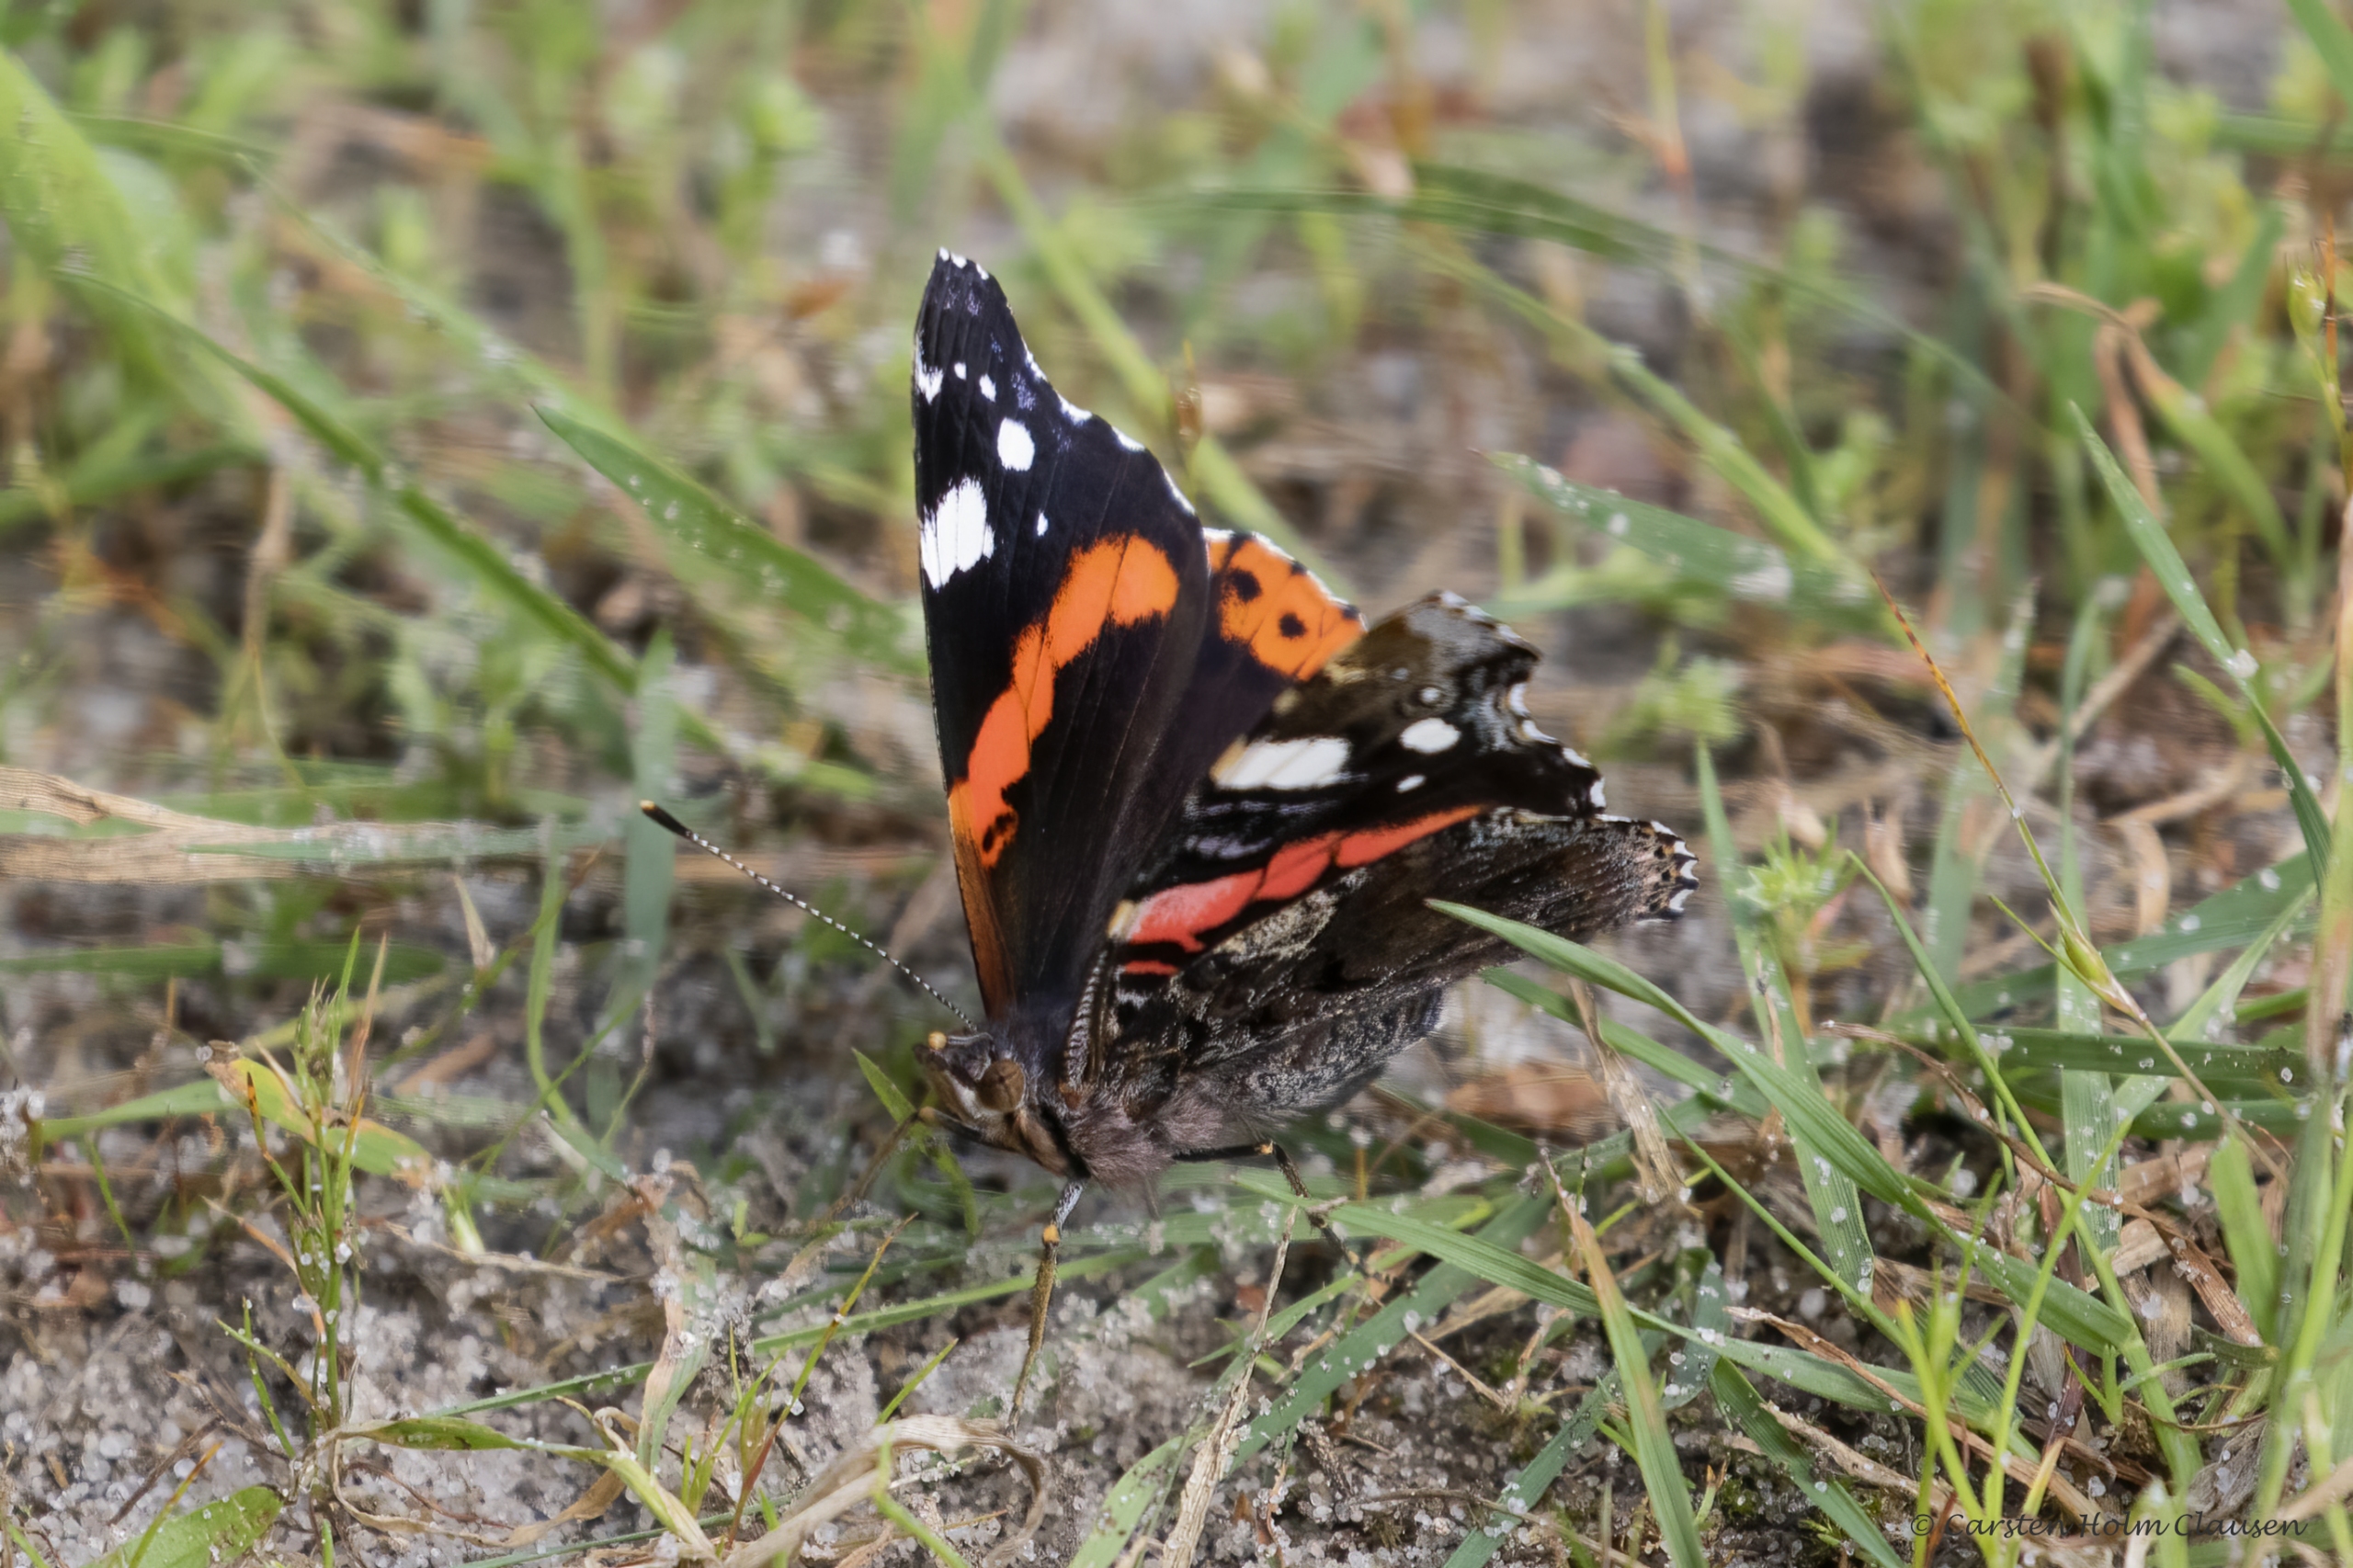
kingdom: Animalia
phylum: Arthropoda
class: Insecta
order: Lepidoptera
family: Nymphalidae
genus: Vanessa
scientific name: Vanessa atalanta
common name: Admiral
